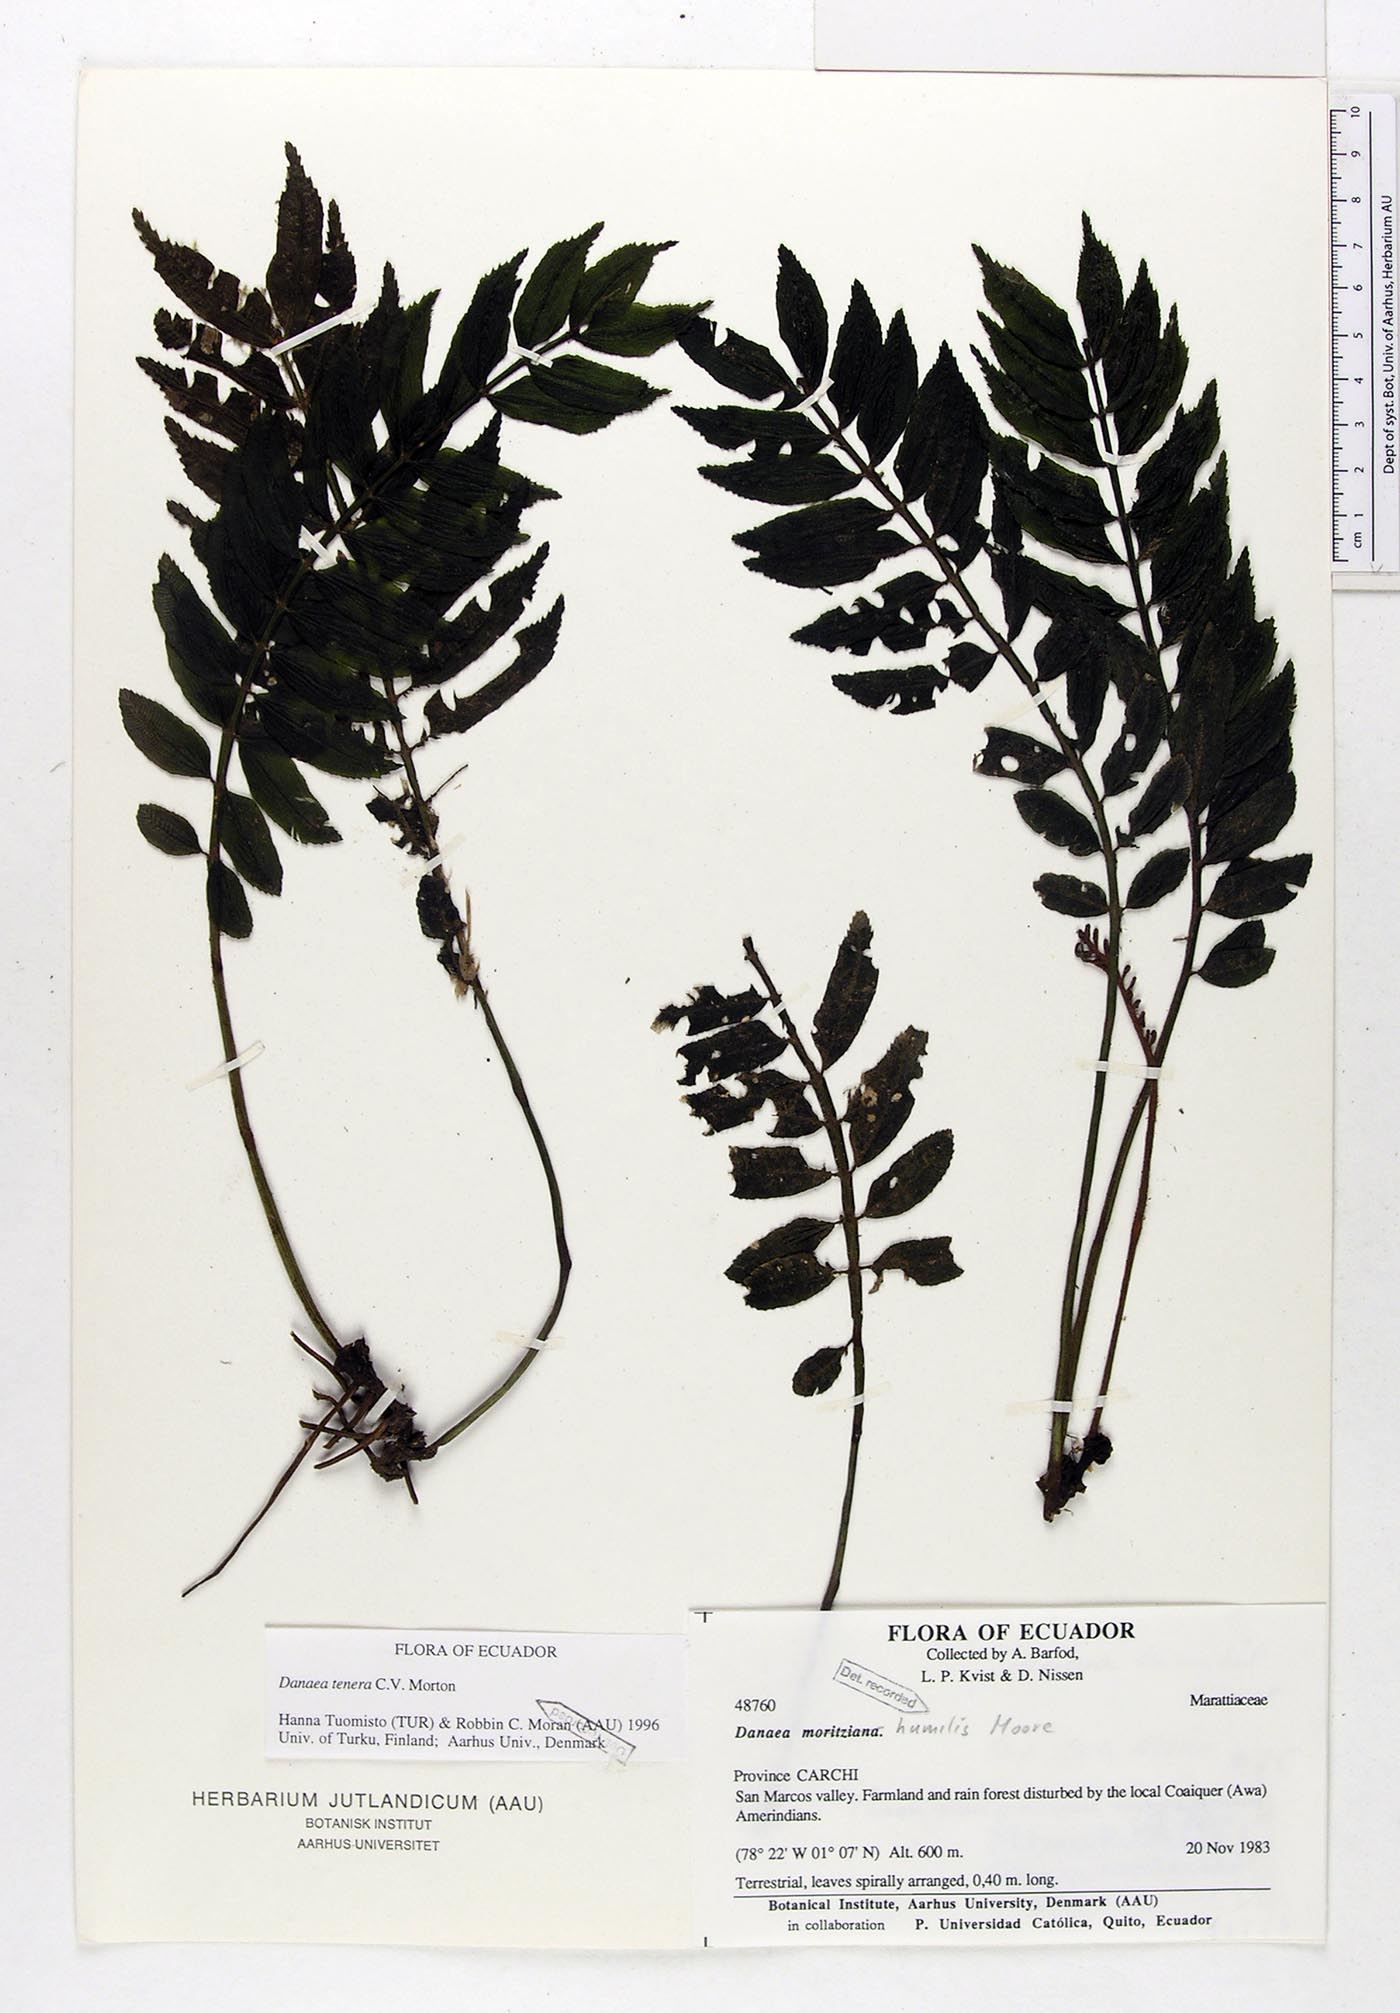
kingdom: Plantae
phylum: Tracheophyta
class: Polypodiopsida
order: Marattiales
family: Marattiaceae
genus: Danaea
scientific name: Danaea tenera
